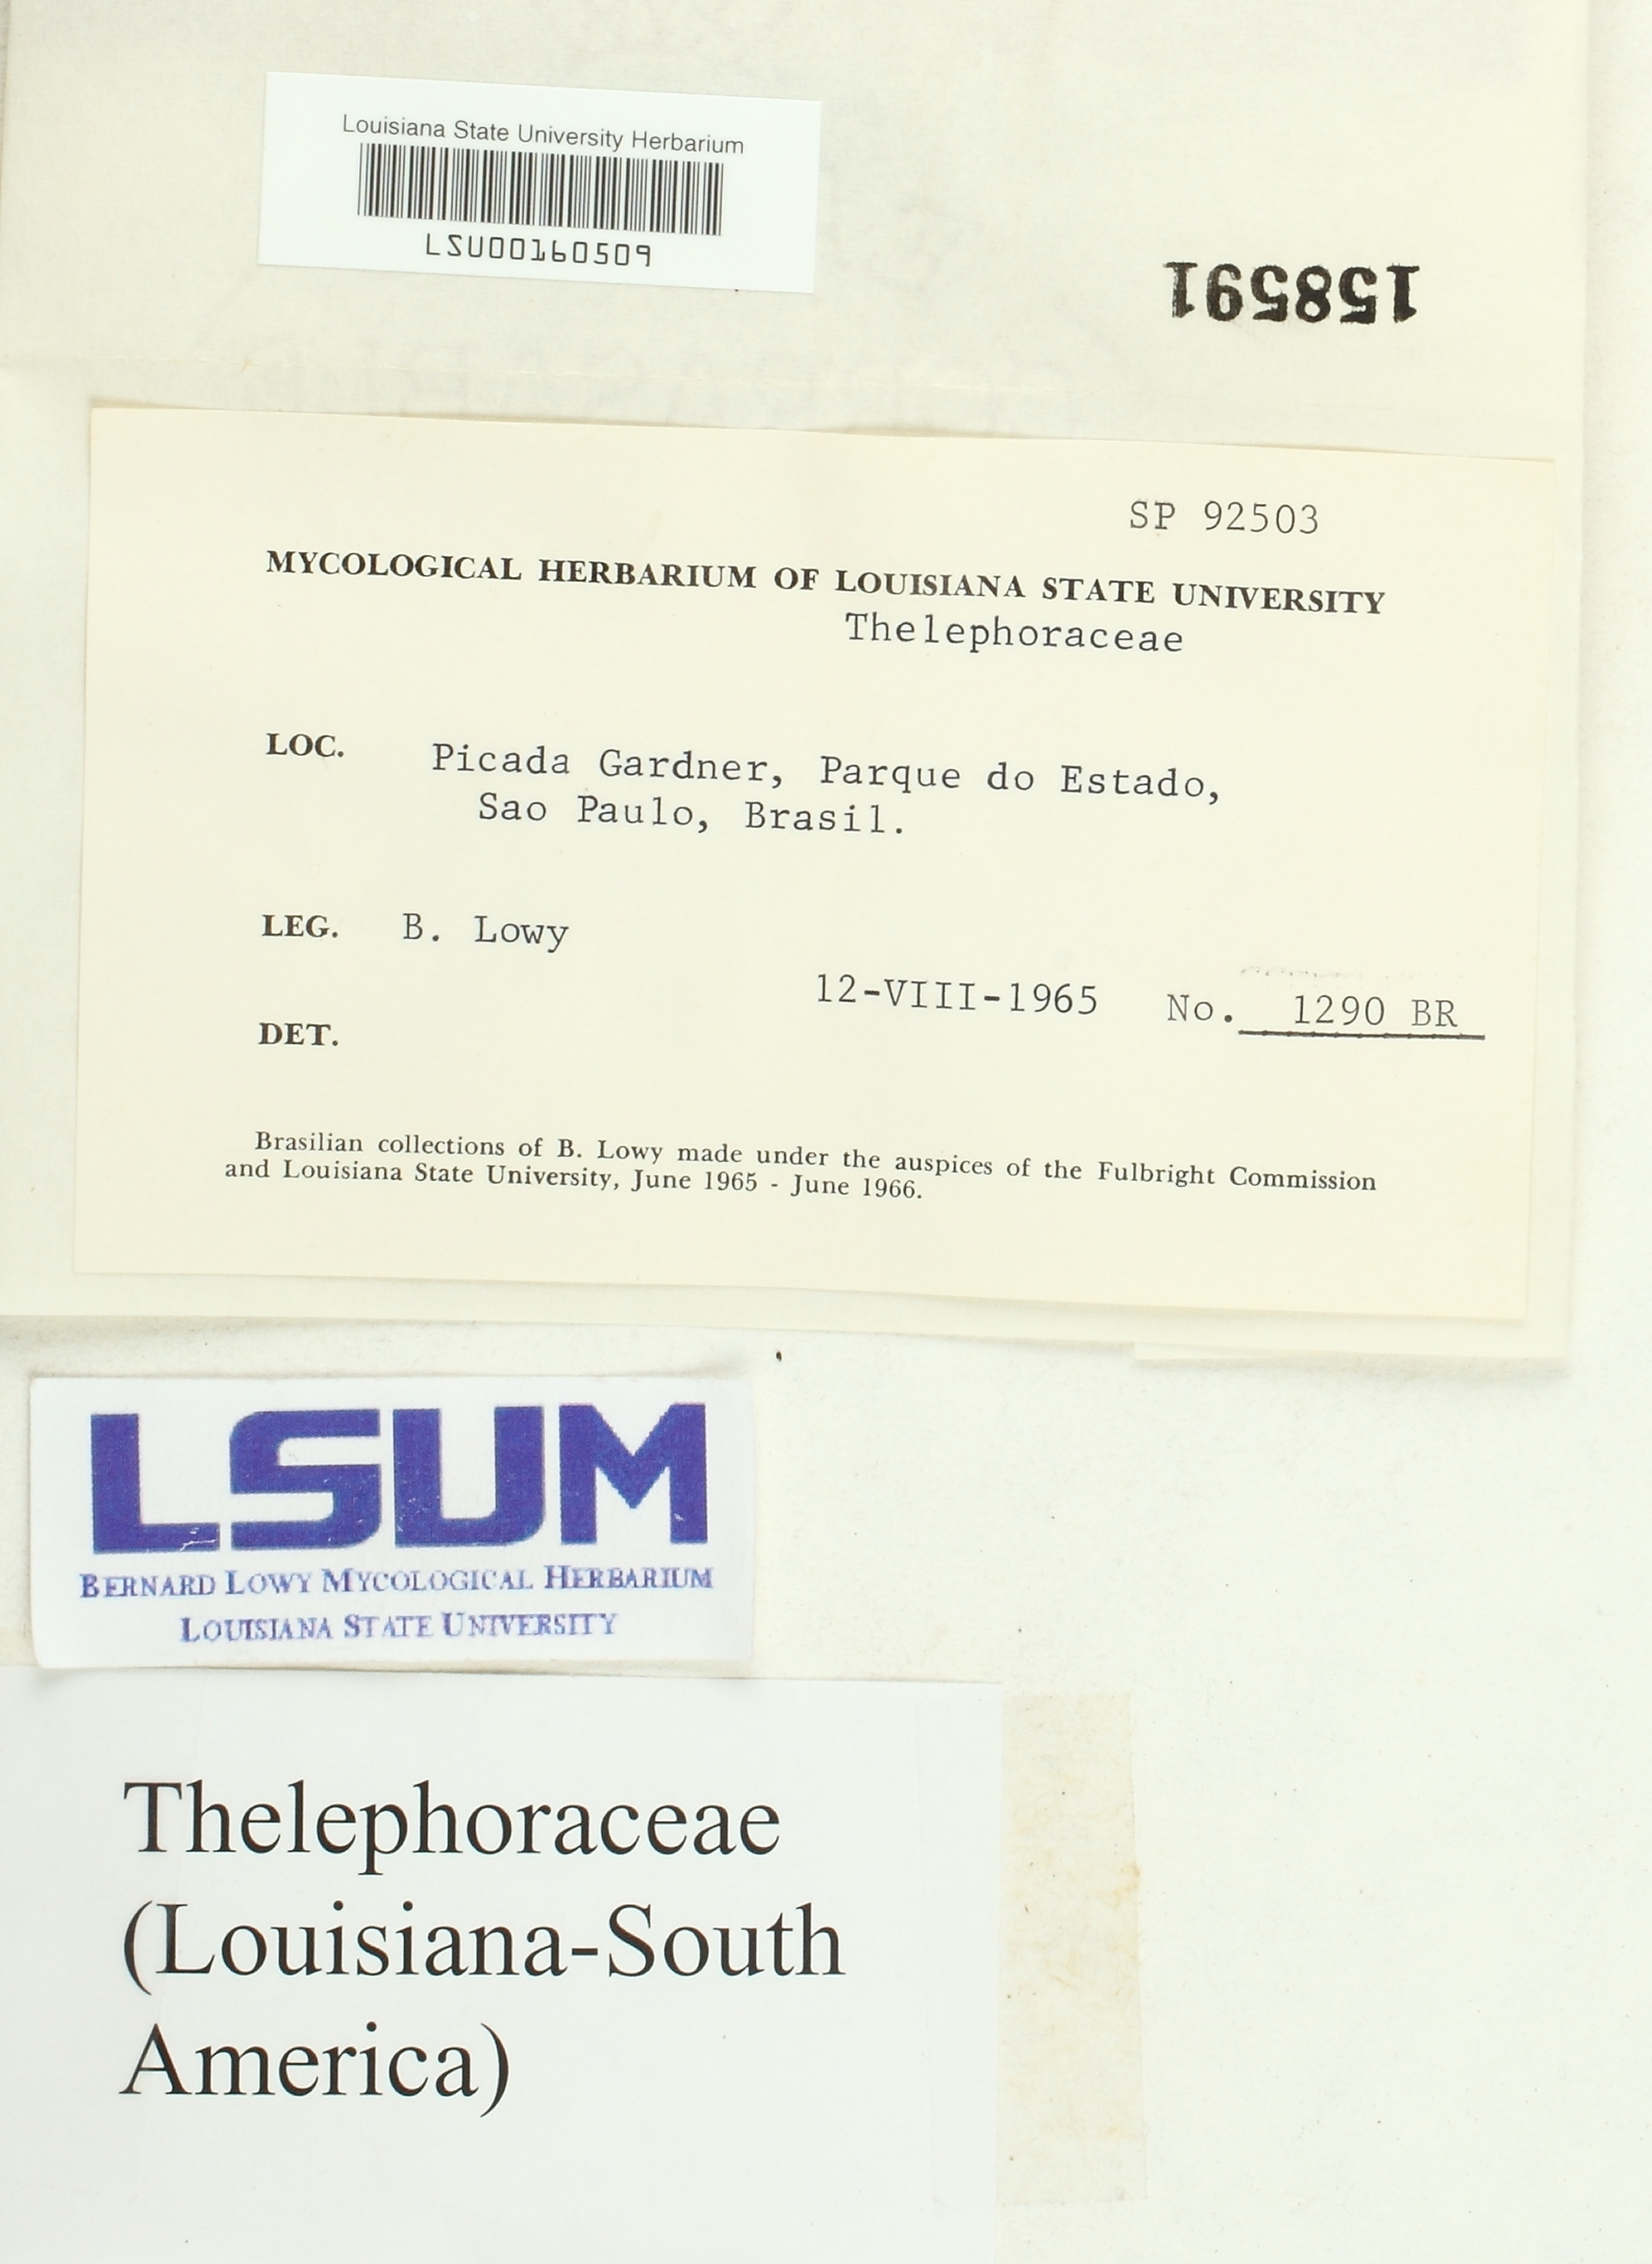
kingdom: Fungi
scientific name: Fungi
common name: Fungi
